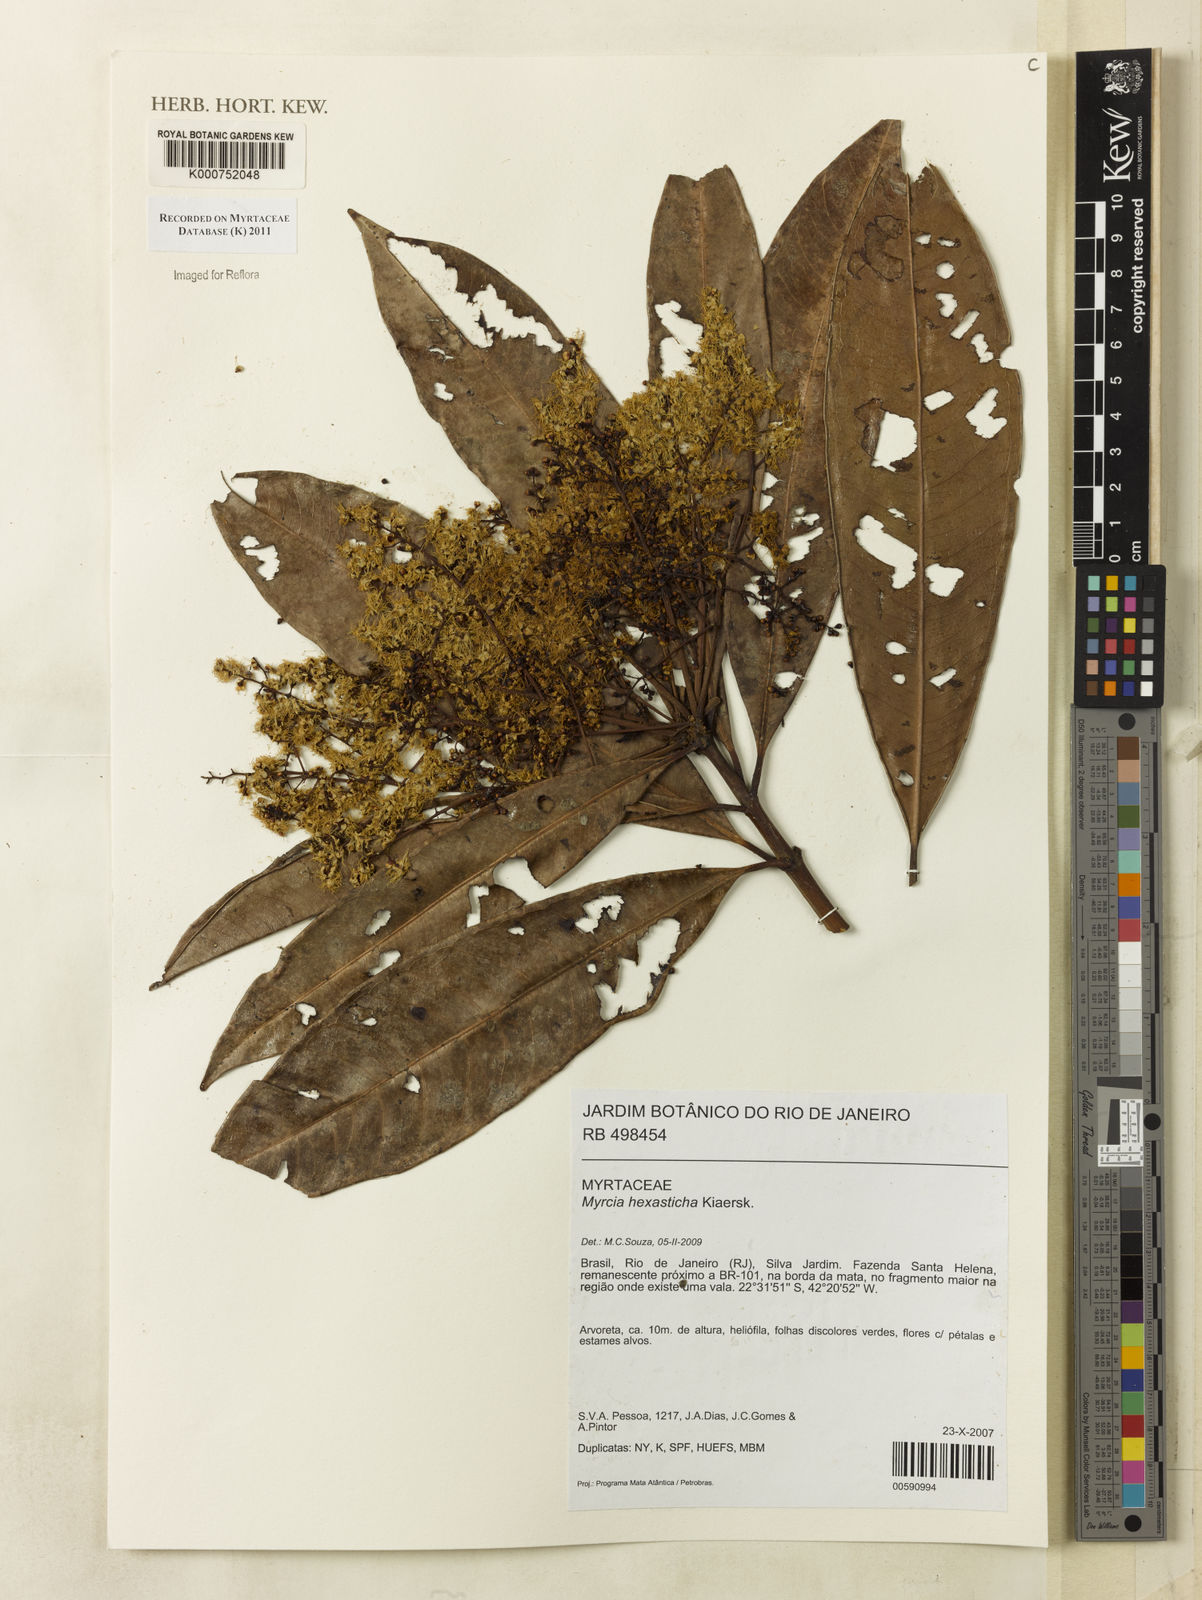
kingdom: Plantae
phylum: Tracheophyta
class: Magnoliopsida
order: Myrtales
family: Myrtaceae
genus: Myrcia
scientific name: Myrcia hexasticha
